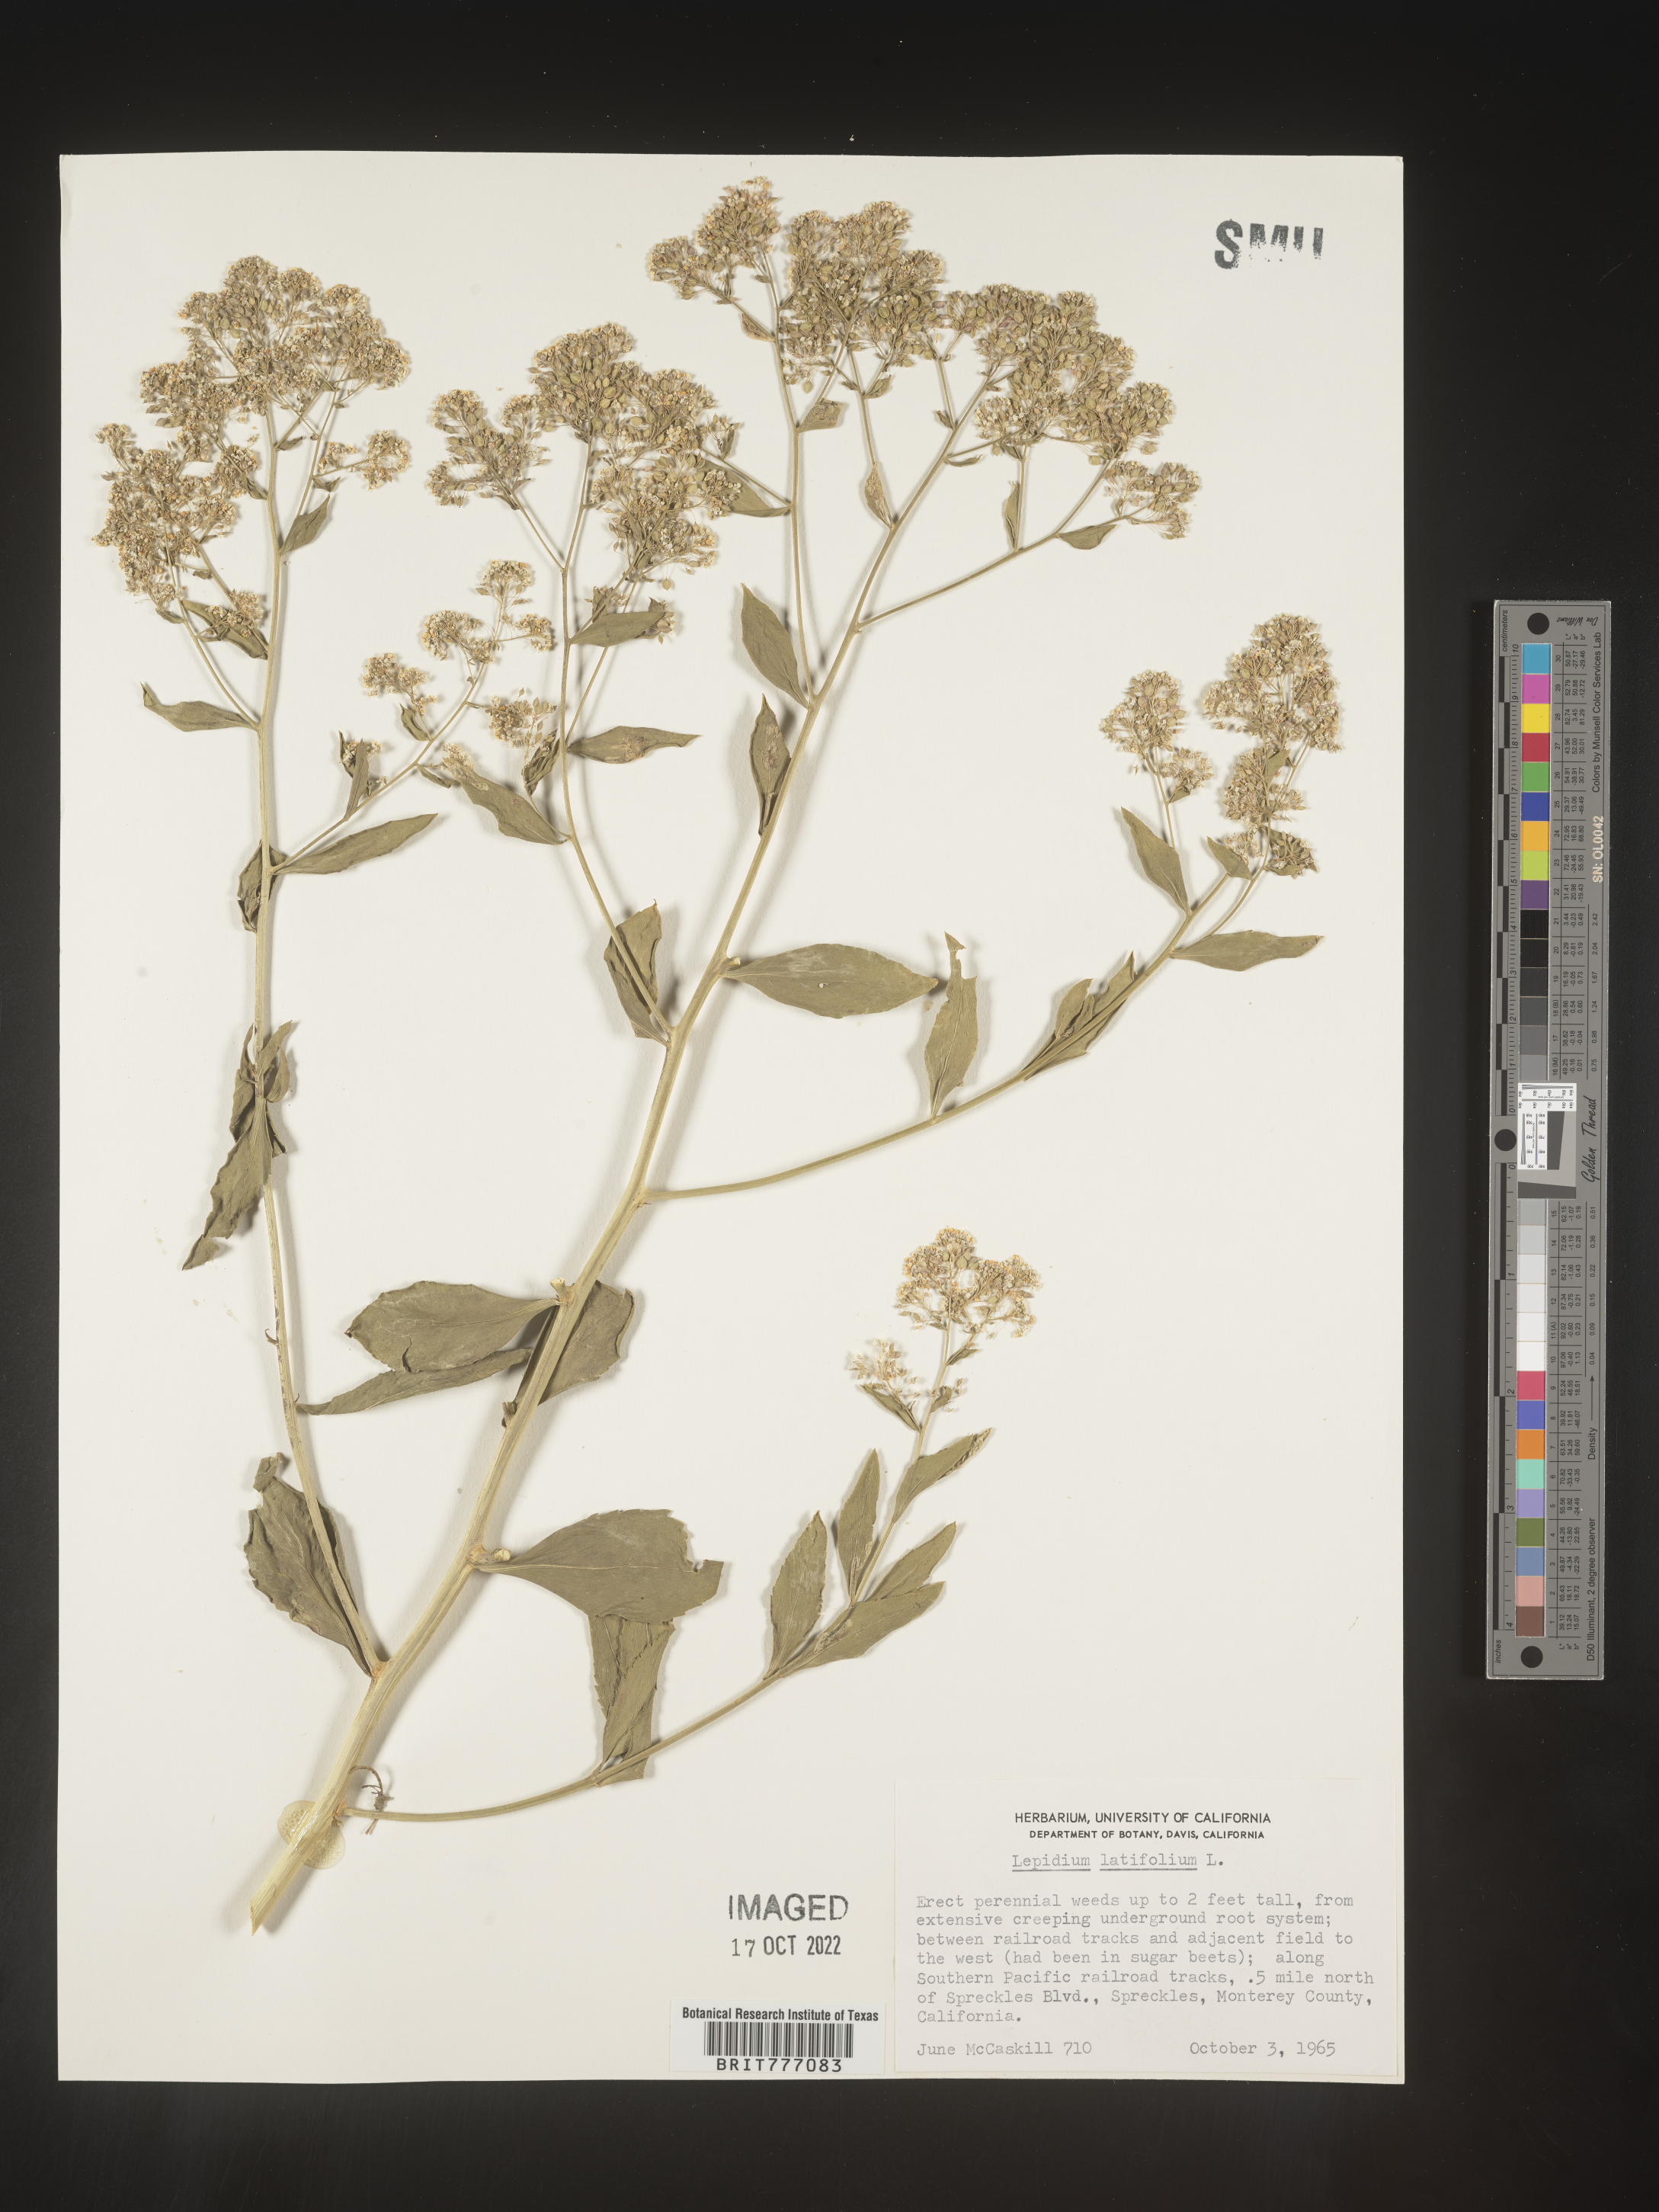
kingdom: Plantae
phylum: Tracheophyta
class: Magnoliopsida
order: Brassicales
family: Brassicaceae
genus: Lepidium
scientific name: Lepidium
